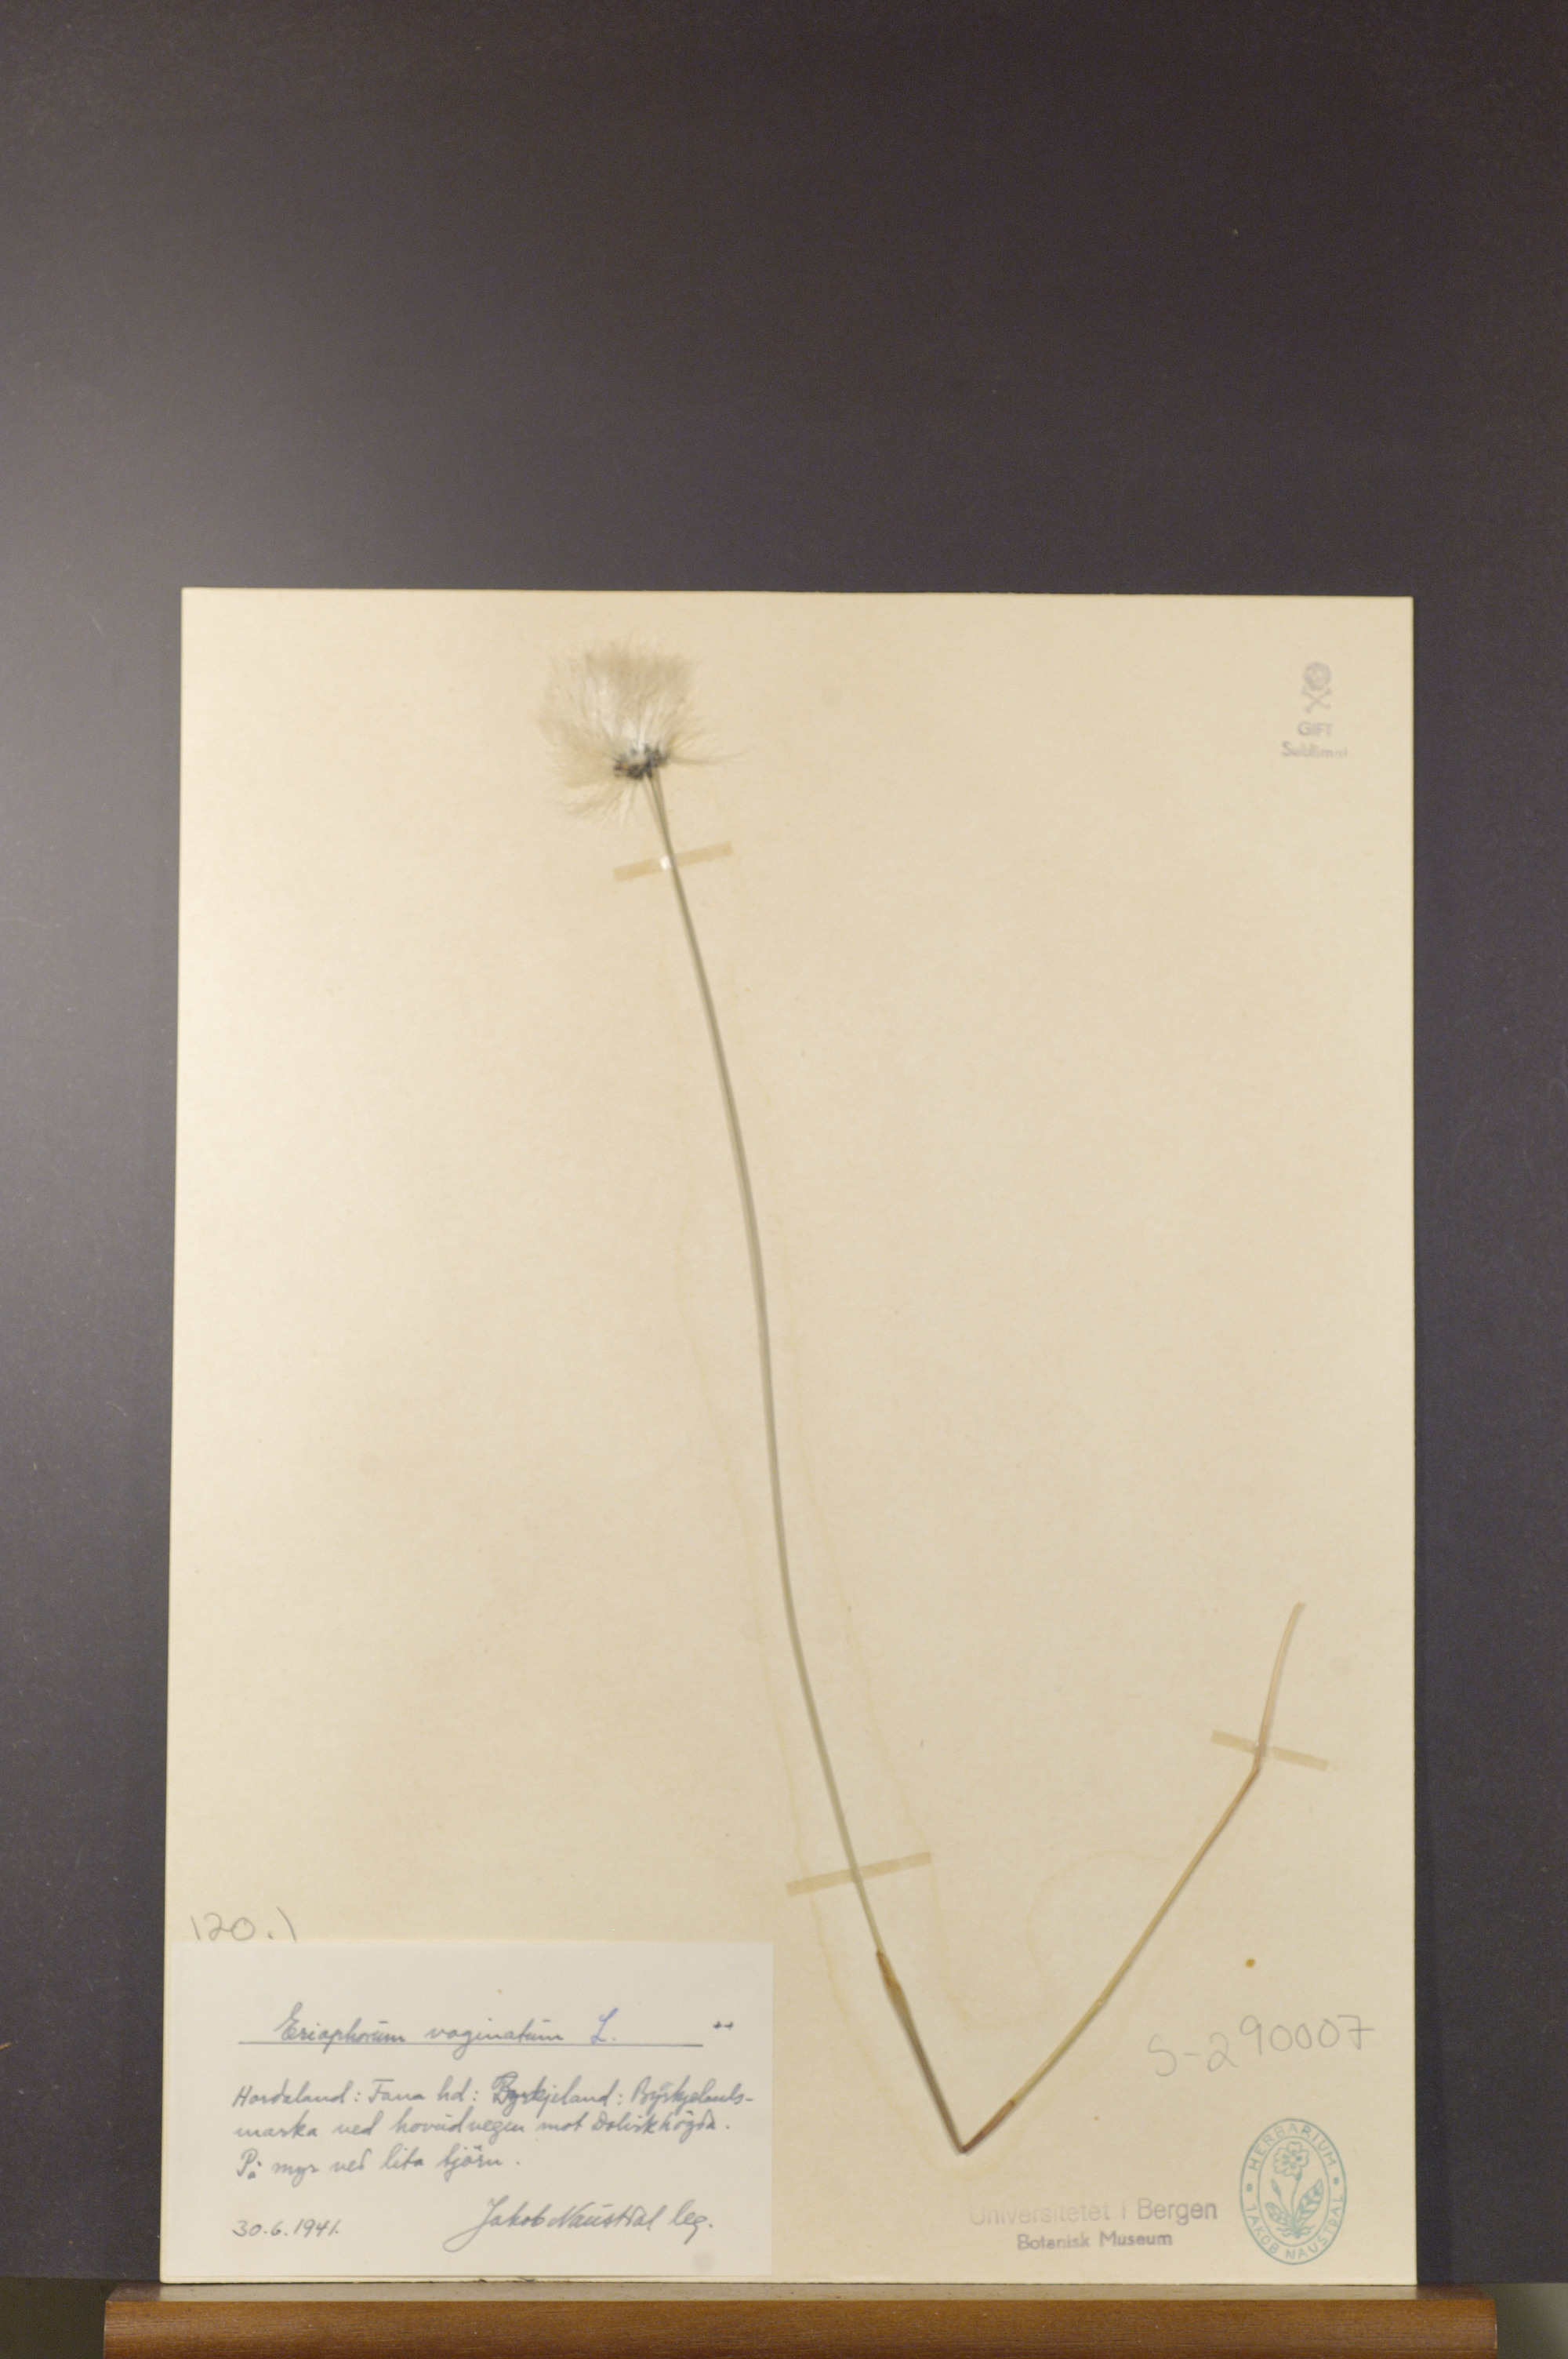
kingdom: Plantae
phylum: Tracheophyta
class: Liliopsida
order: Poales
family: Cyperaceae
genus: Eriophorum
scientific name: Eriophorum vaginatum
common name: Hare's-tail cottongrass
